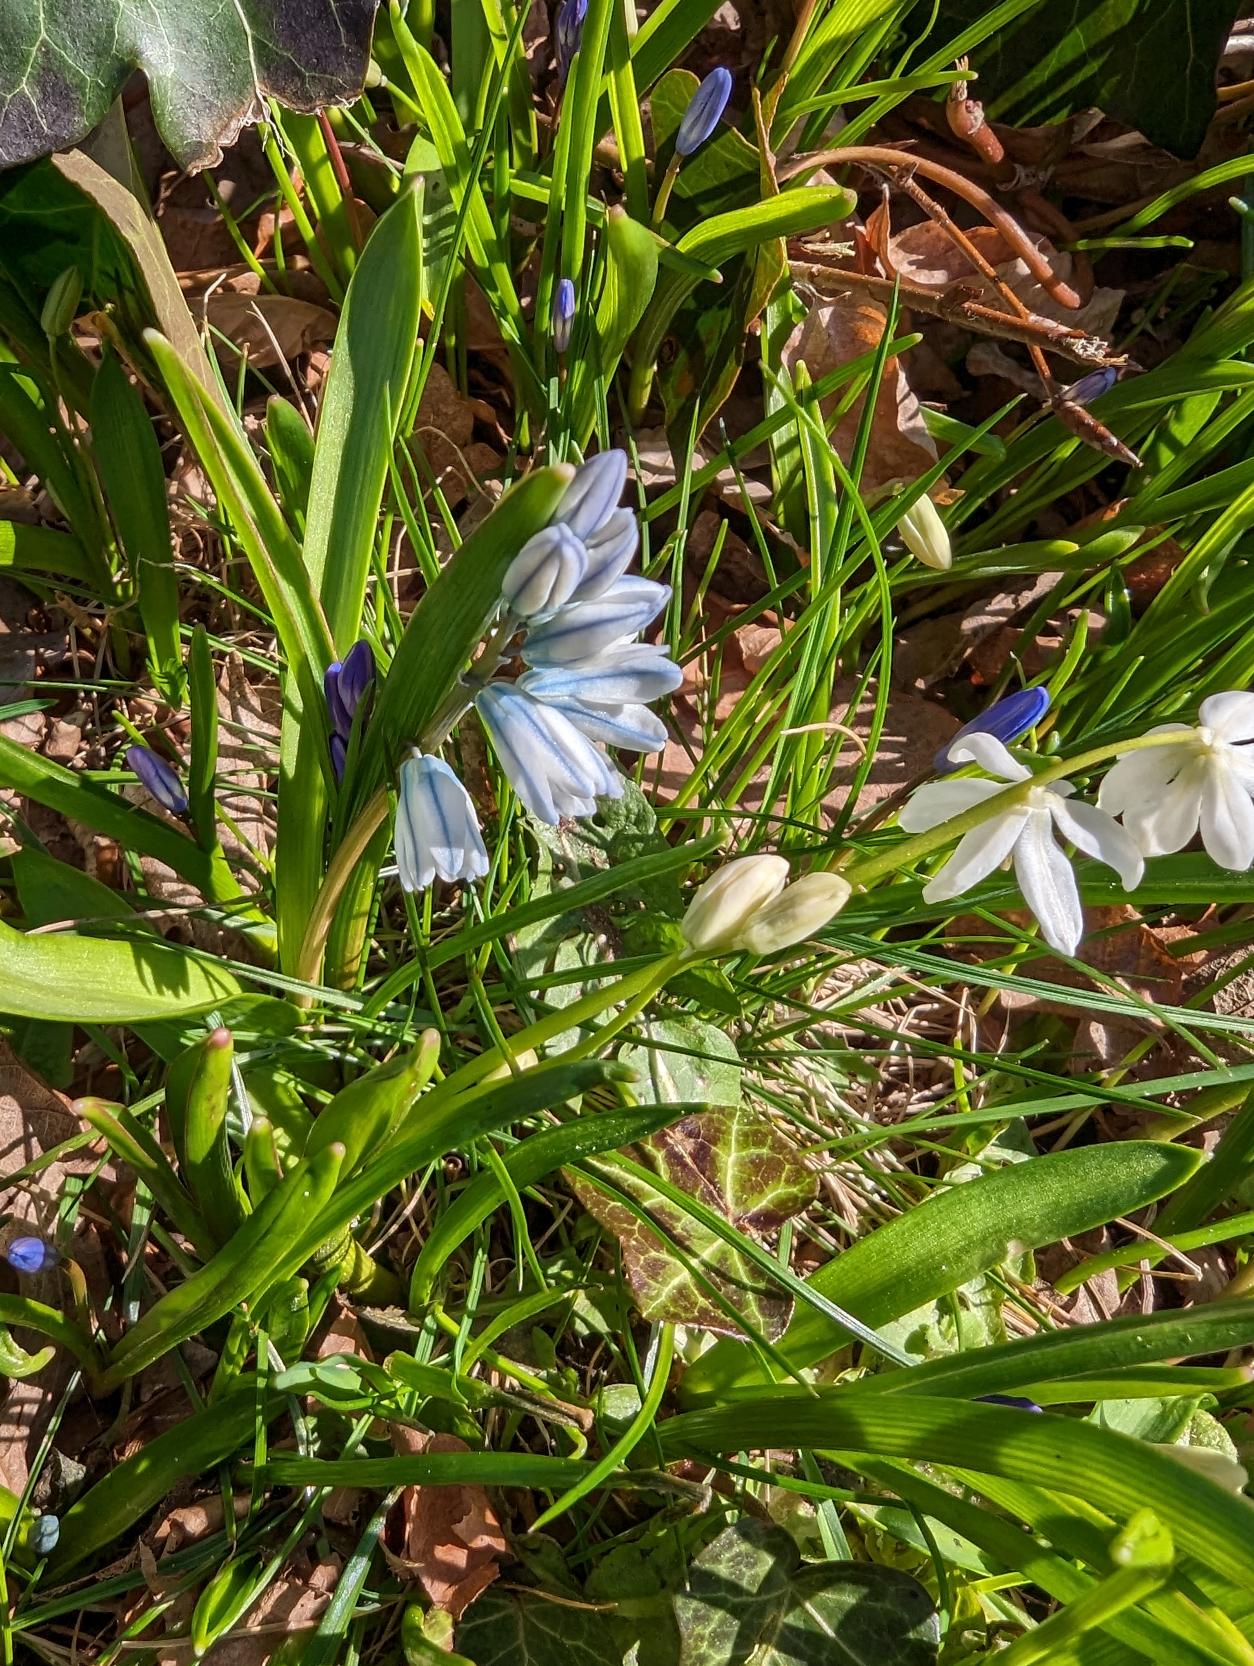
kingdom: Plantae
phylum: Tracheophyta
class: Liliopsida
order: Asparagales
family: Asparagaceae
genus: Puschkinia
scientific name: Puschkinia scilloides
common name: Porcelænshyacint
